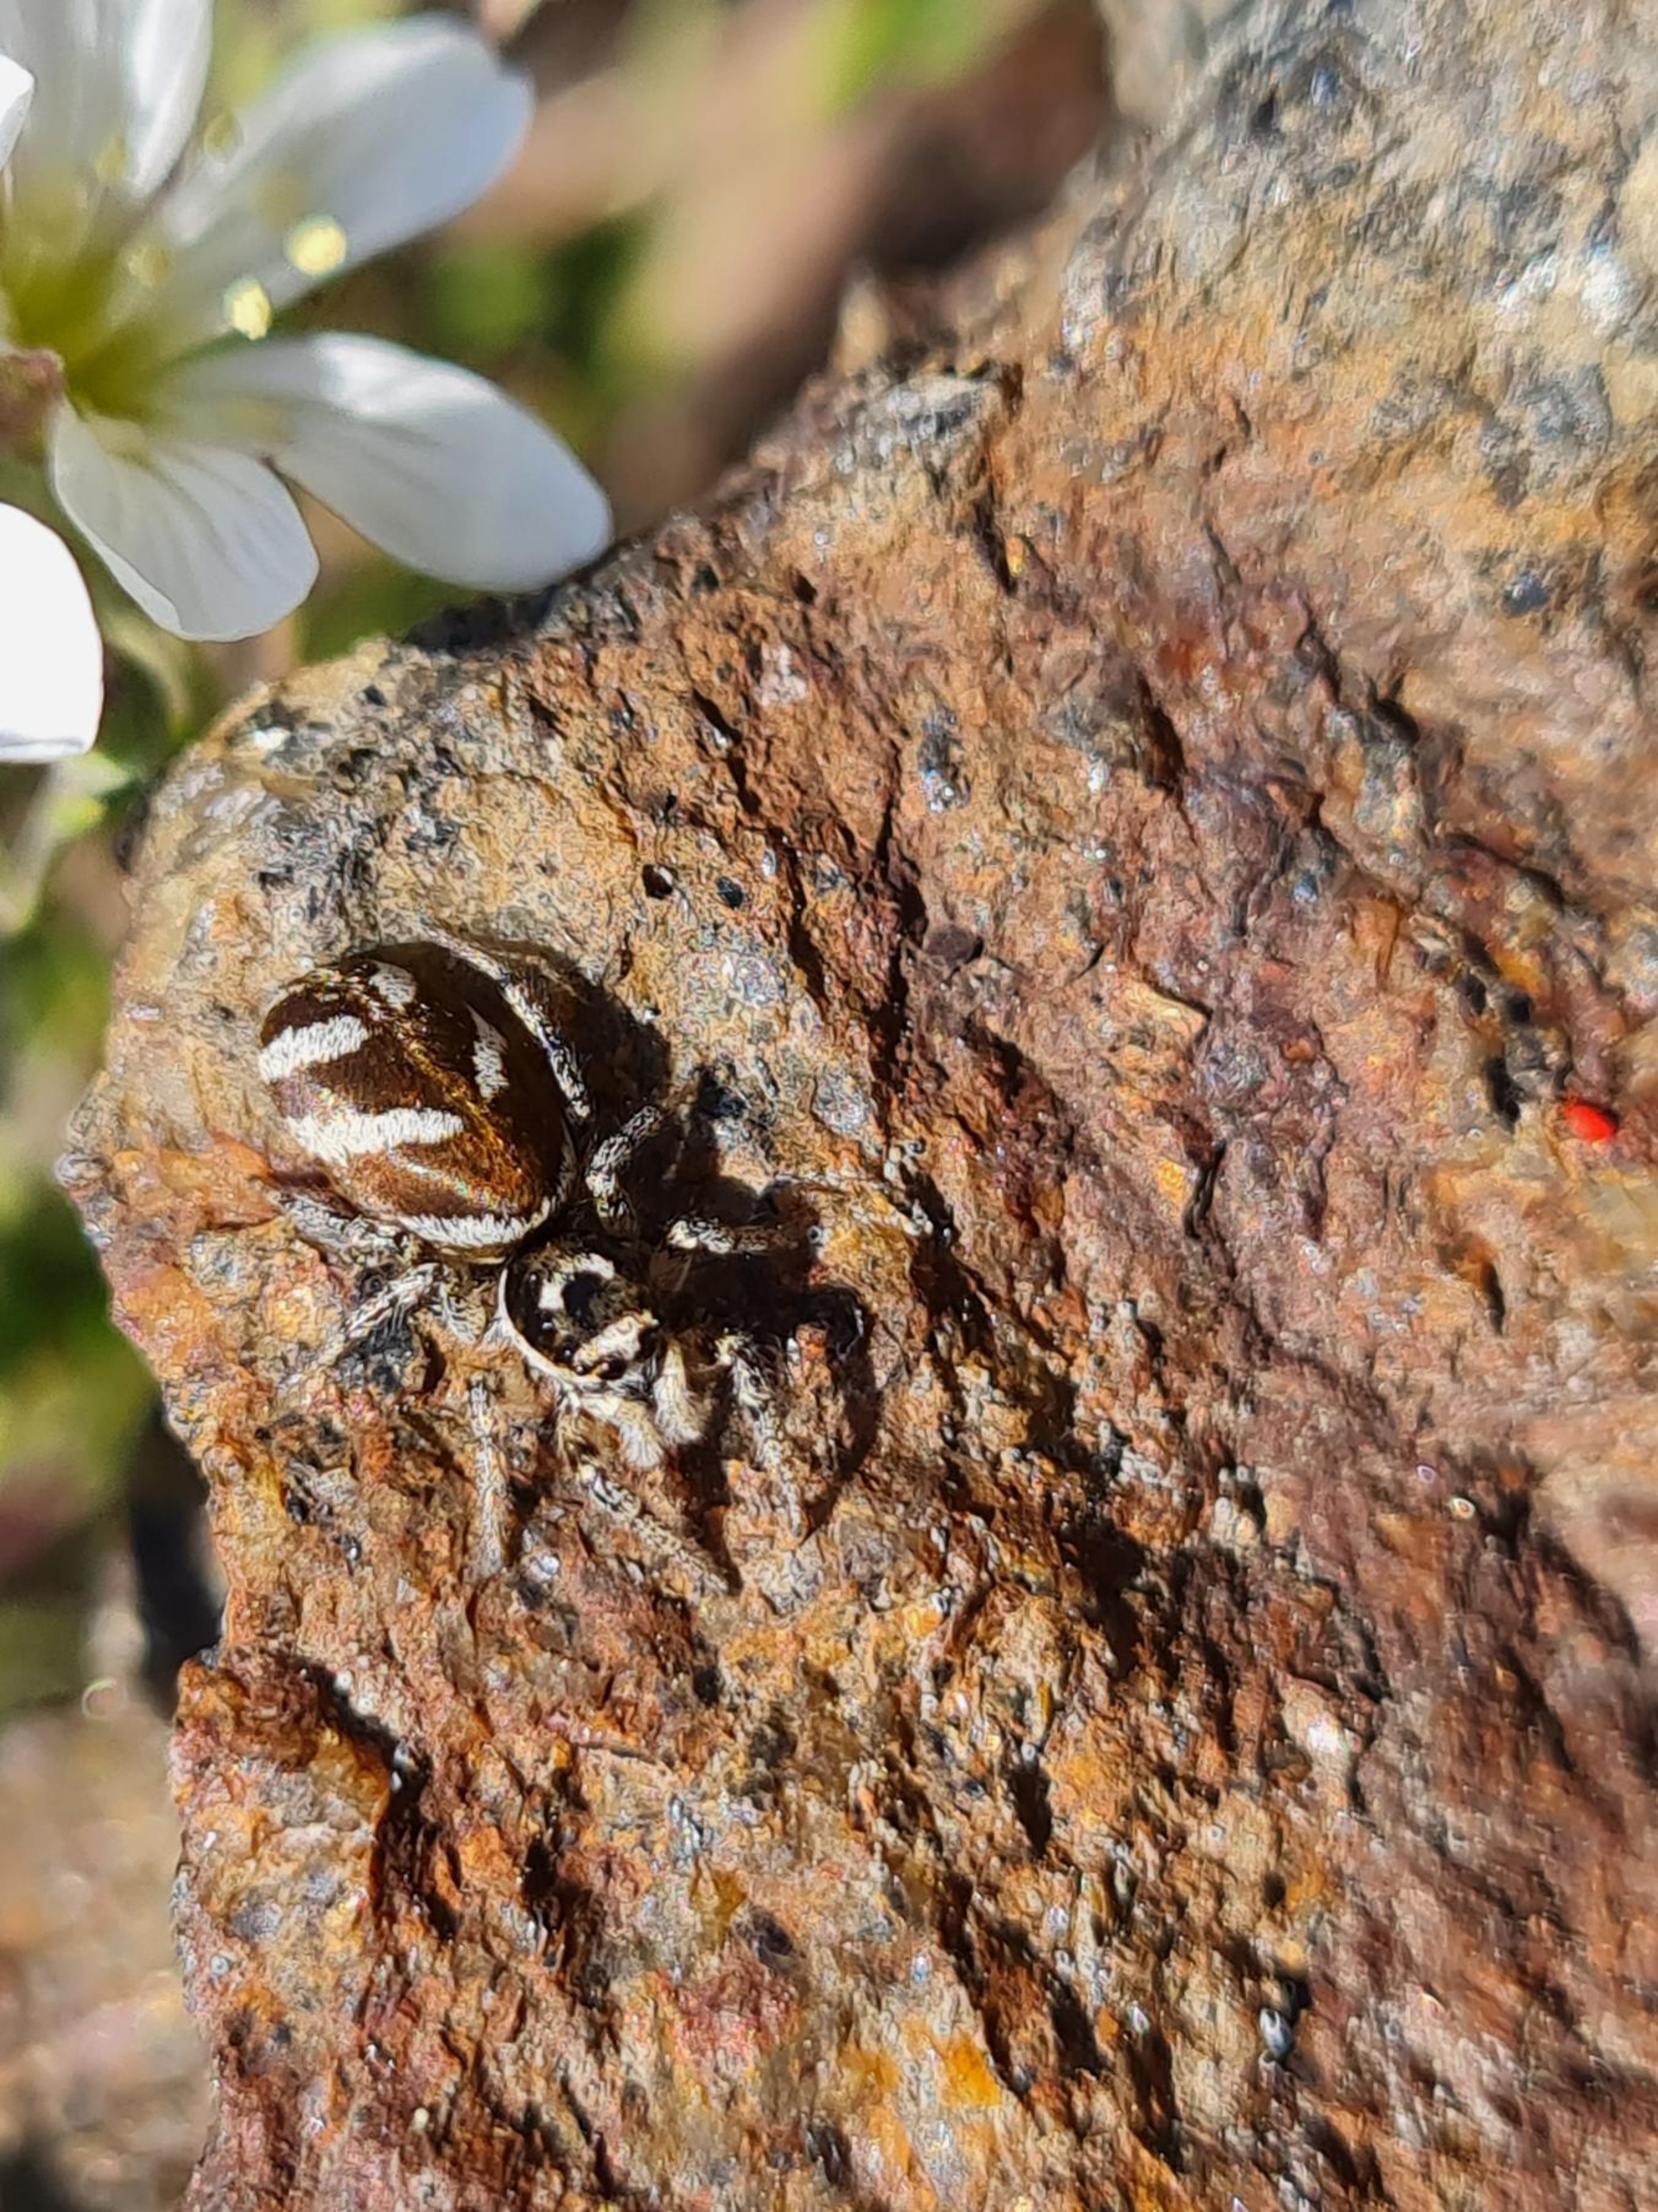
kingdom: Animalia
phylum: Arthropoda
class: Arachnida
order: Araneae
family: Salticidae
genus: Salticus
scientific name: Salticus scenicus
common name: Almindelig zebraedderkop
